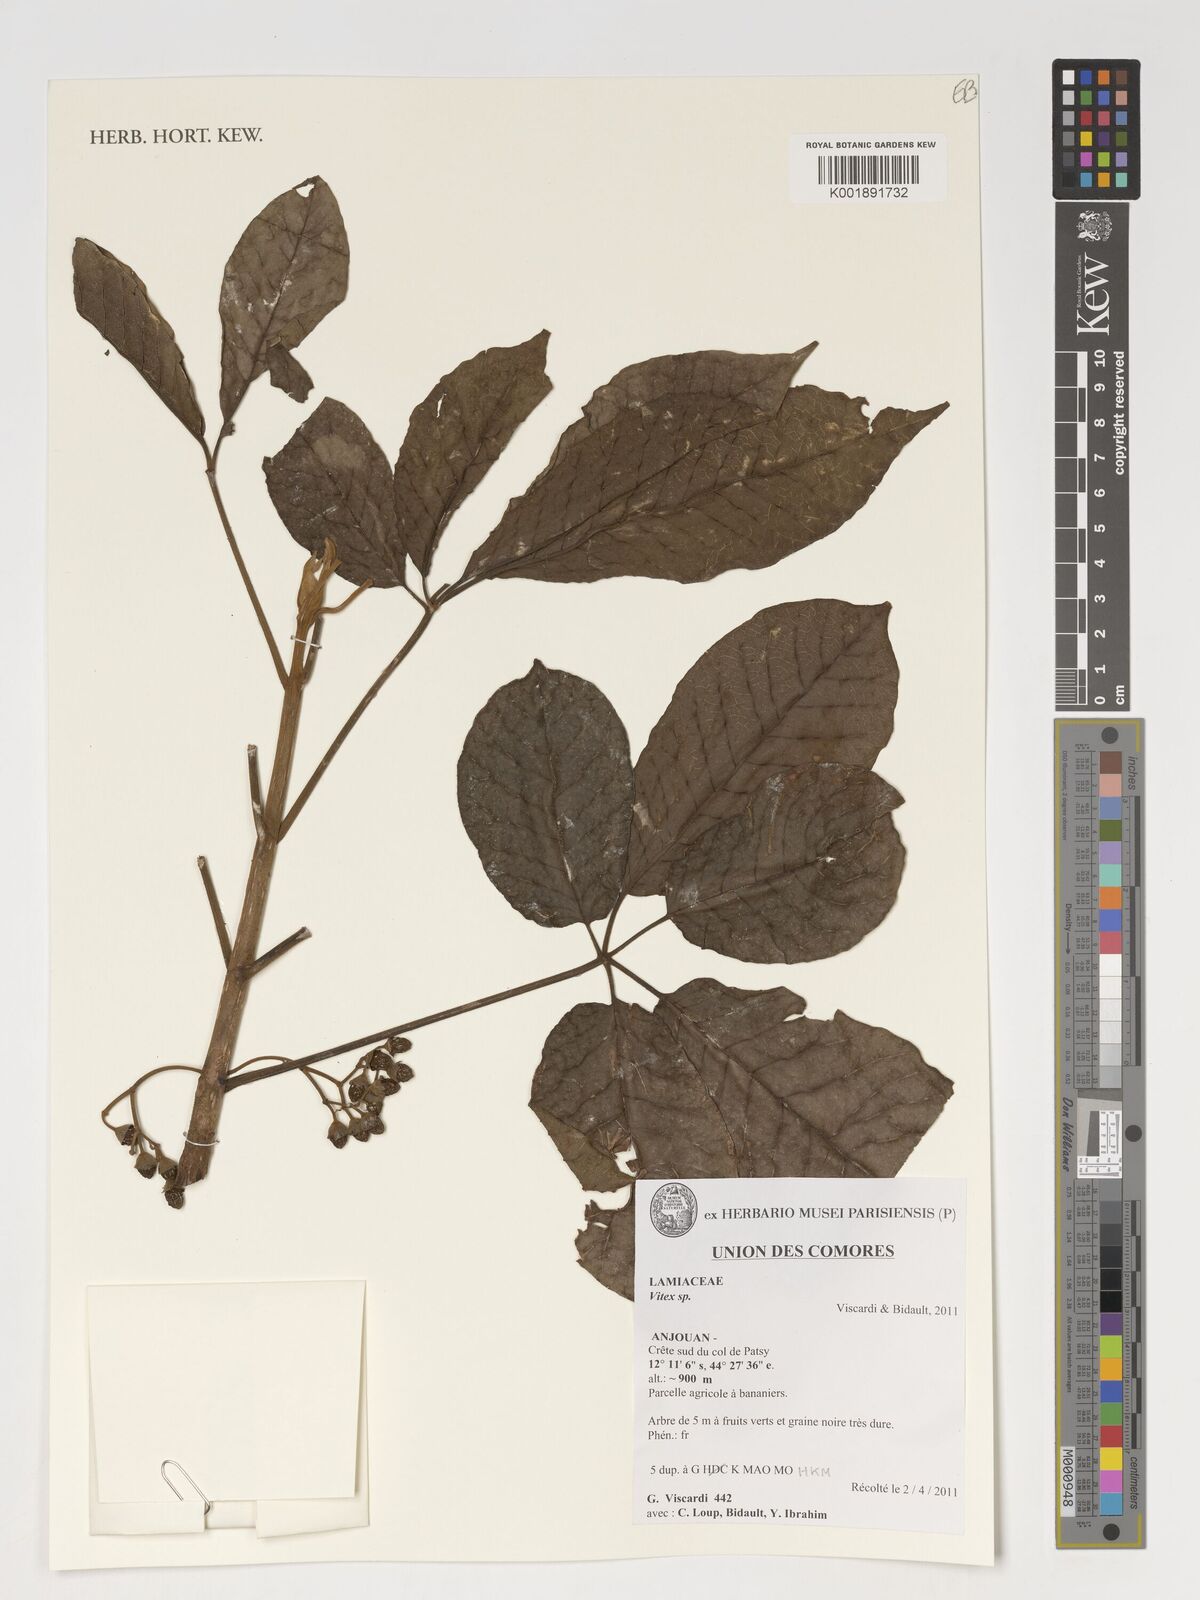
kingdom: Plantae
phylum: Tracheophyta
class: Magnoliopsida
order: Lamiales
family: Lamiaceae
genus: Vitex
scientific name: Vitex
